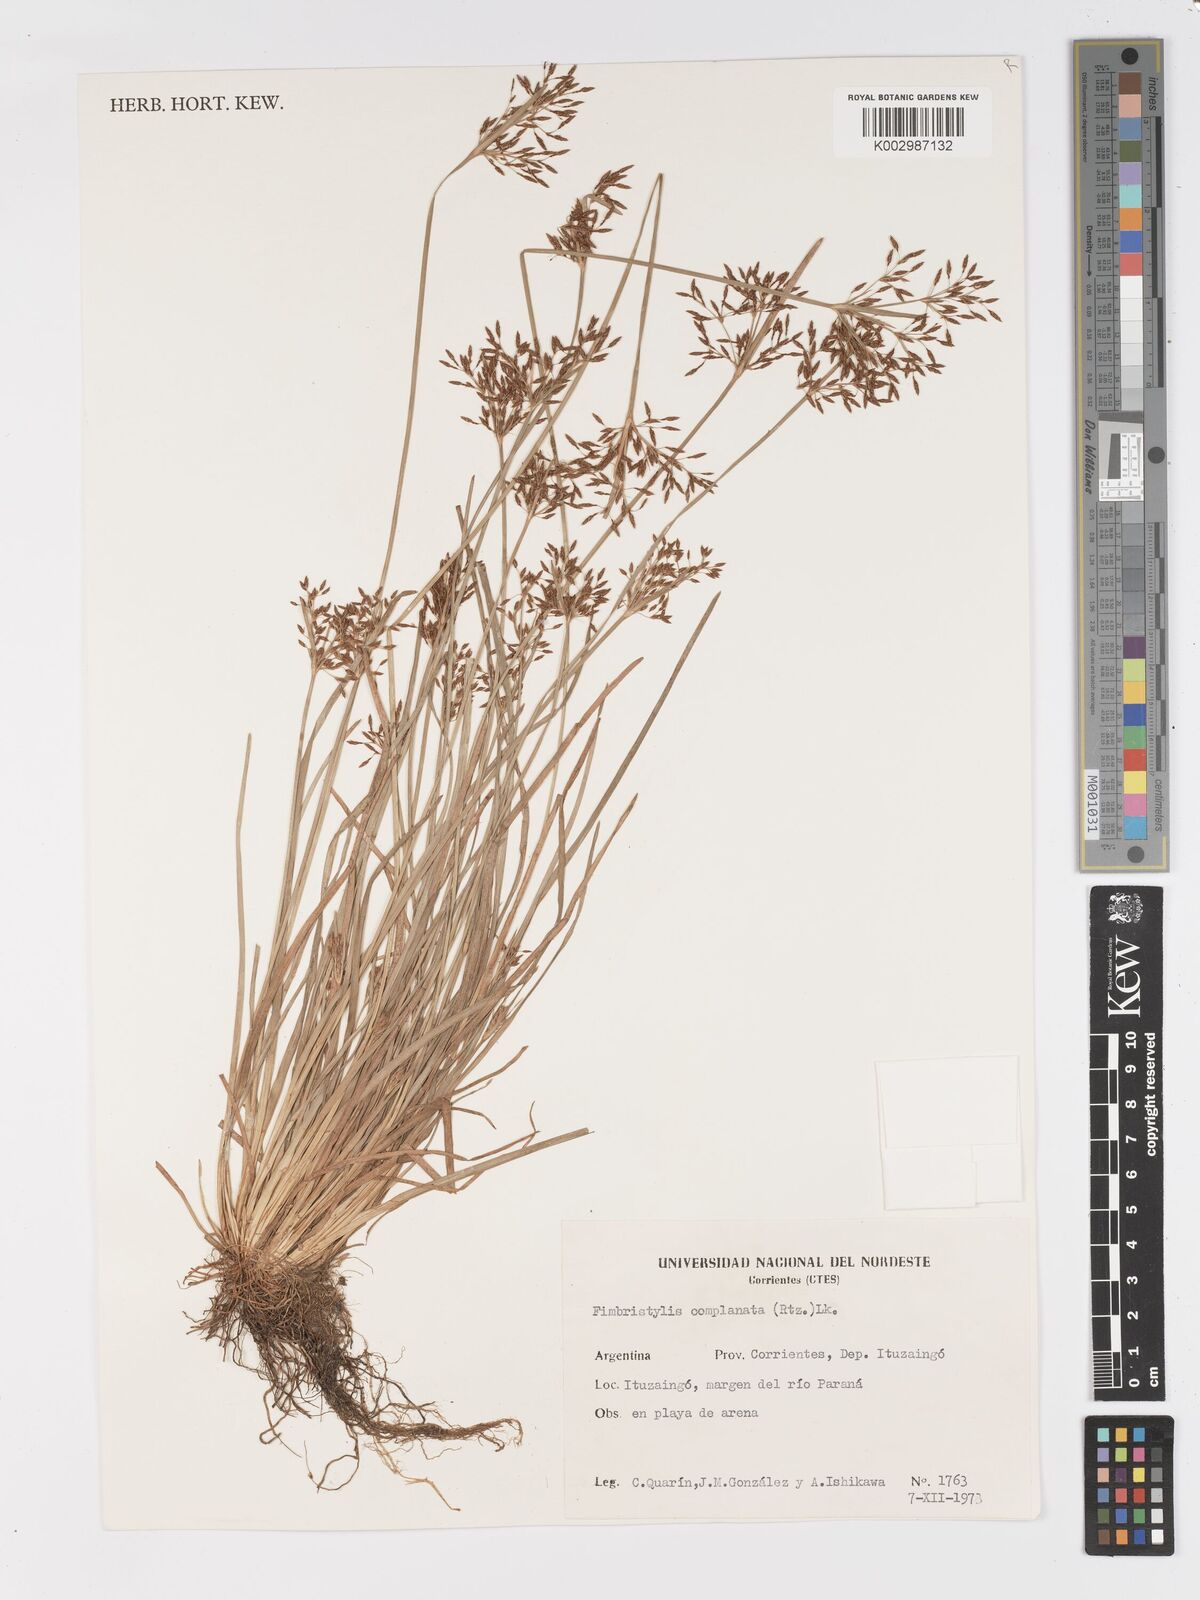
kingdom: Plantae
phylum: Tracheophyta
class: Liliopsida
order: Poales
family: Cyperaceae
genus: Fimbristylis
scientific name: Fimbristylis complanata
